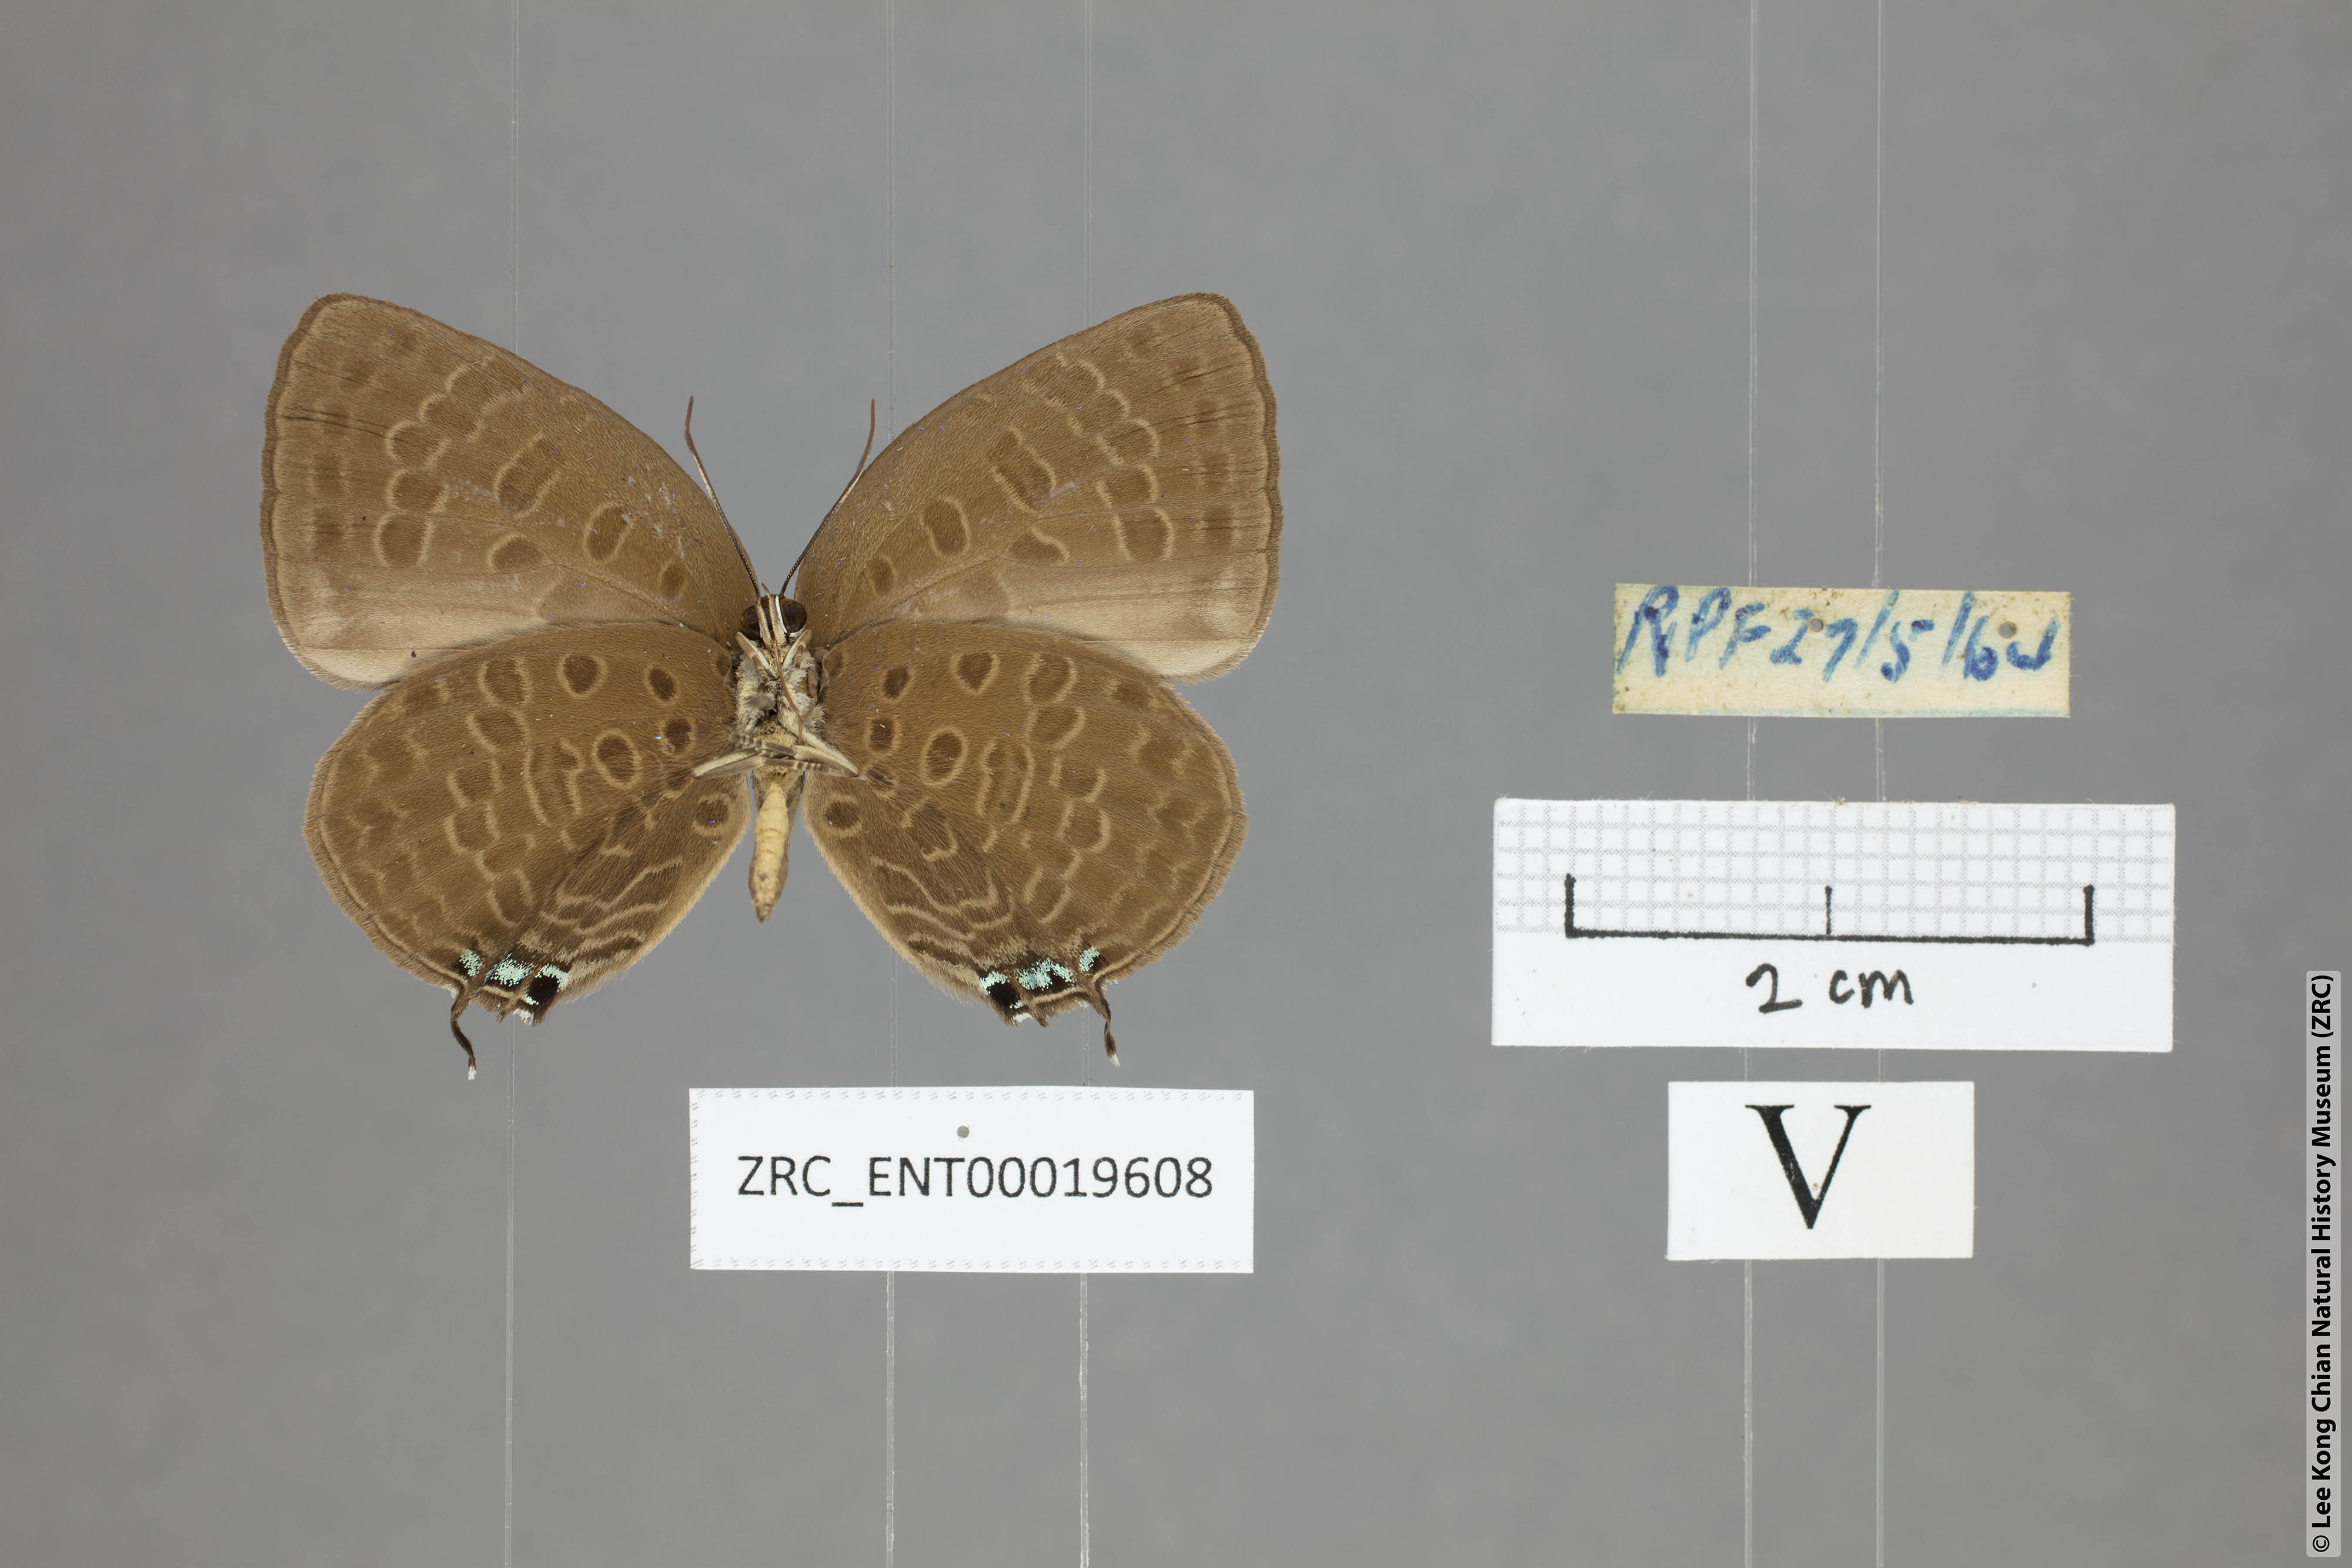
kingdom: Animalia
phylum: Arthropoda
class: Insecta
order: Lepidoptera
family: Lycaenidae
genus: Arhopala
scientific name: Arhopala atosia
